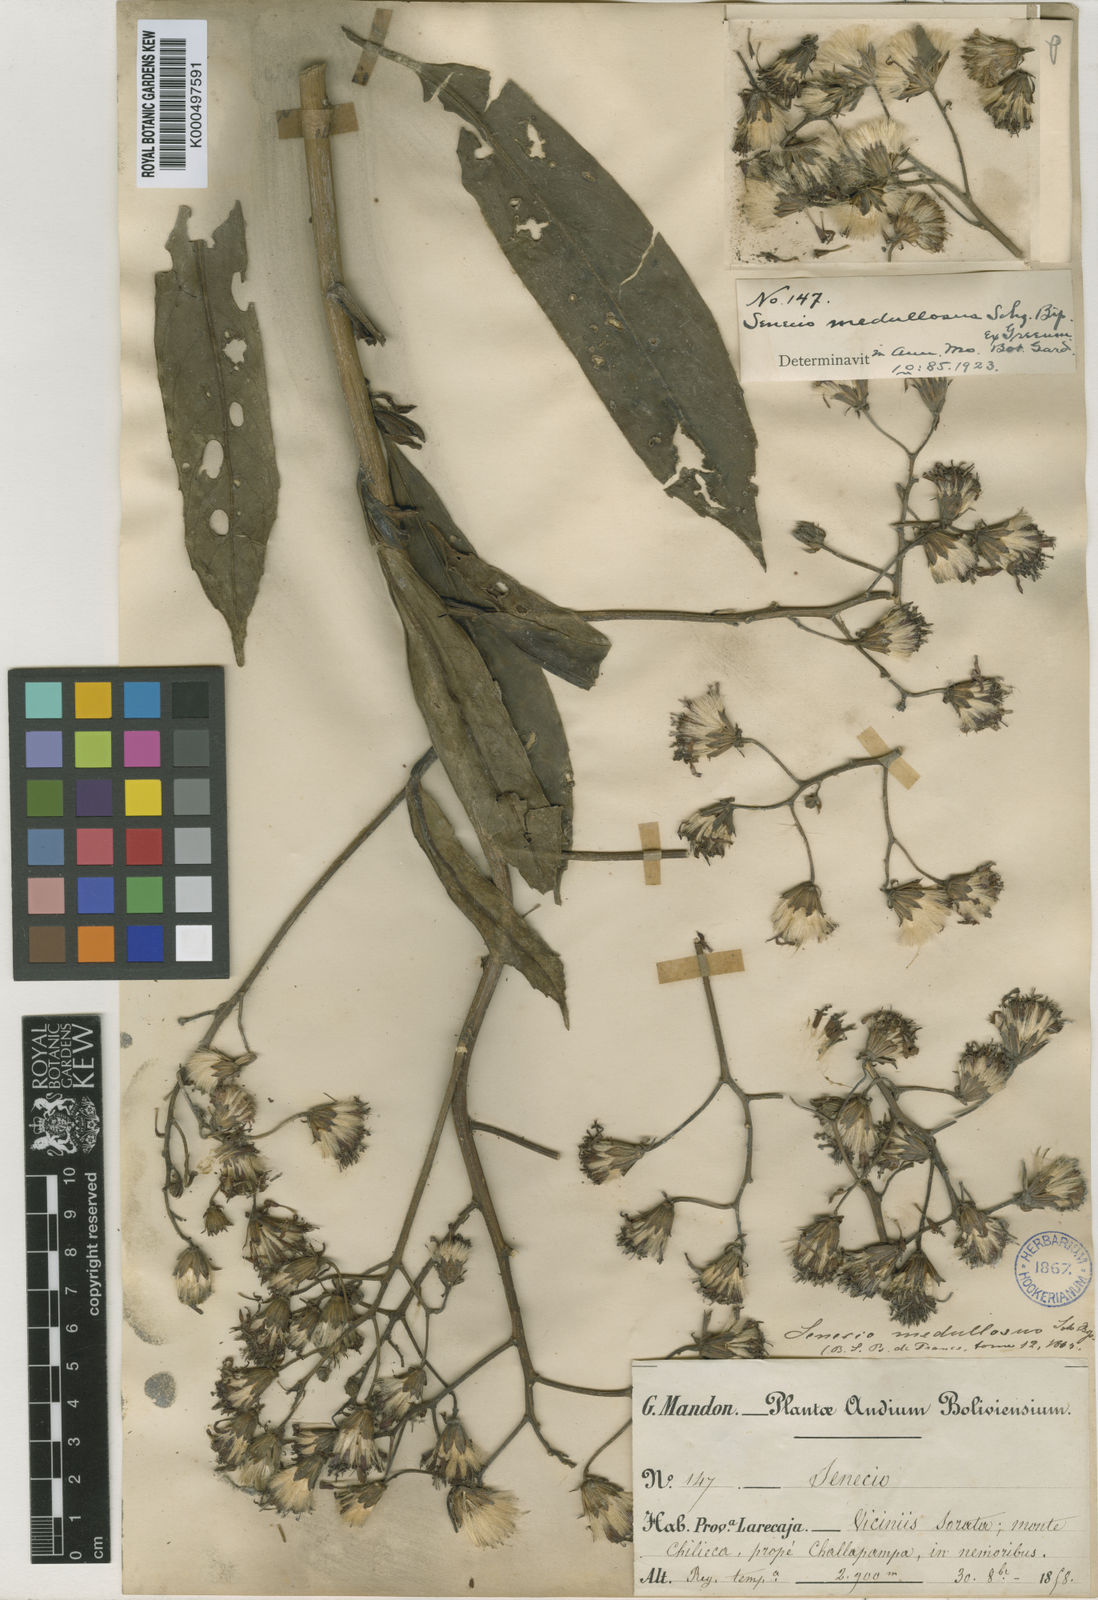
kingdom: Plantae
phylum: Tracheophyta
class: Magnoliopsida
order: Asterales
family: Asteraceae
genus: Dendrophorbium
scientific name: Dendrophorbium medullosum
